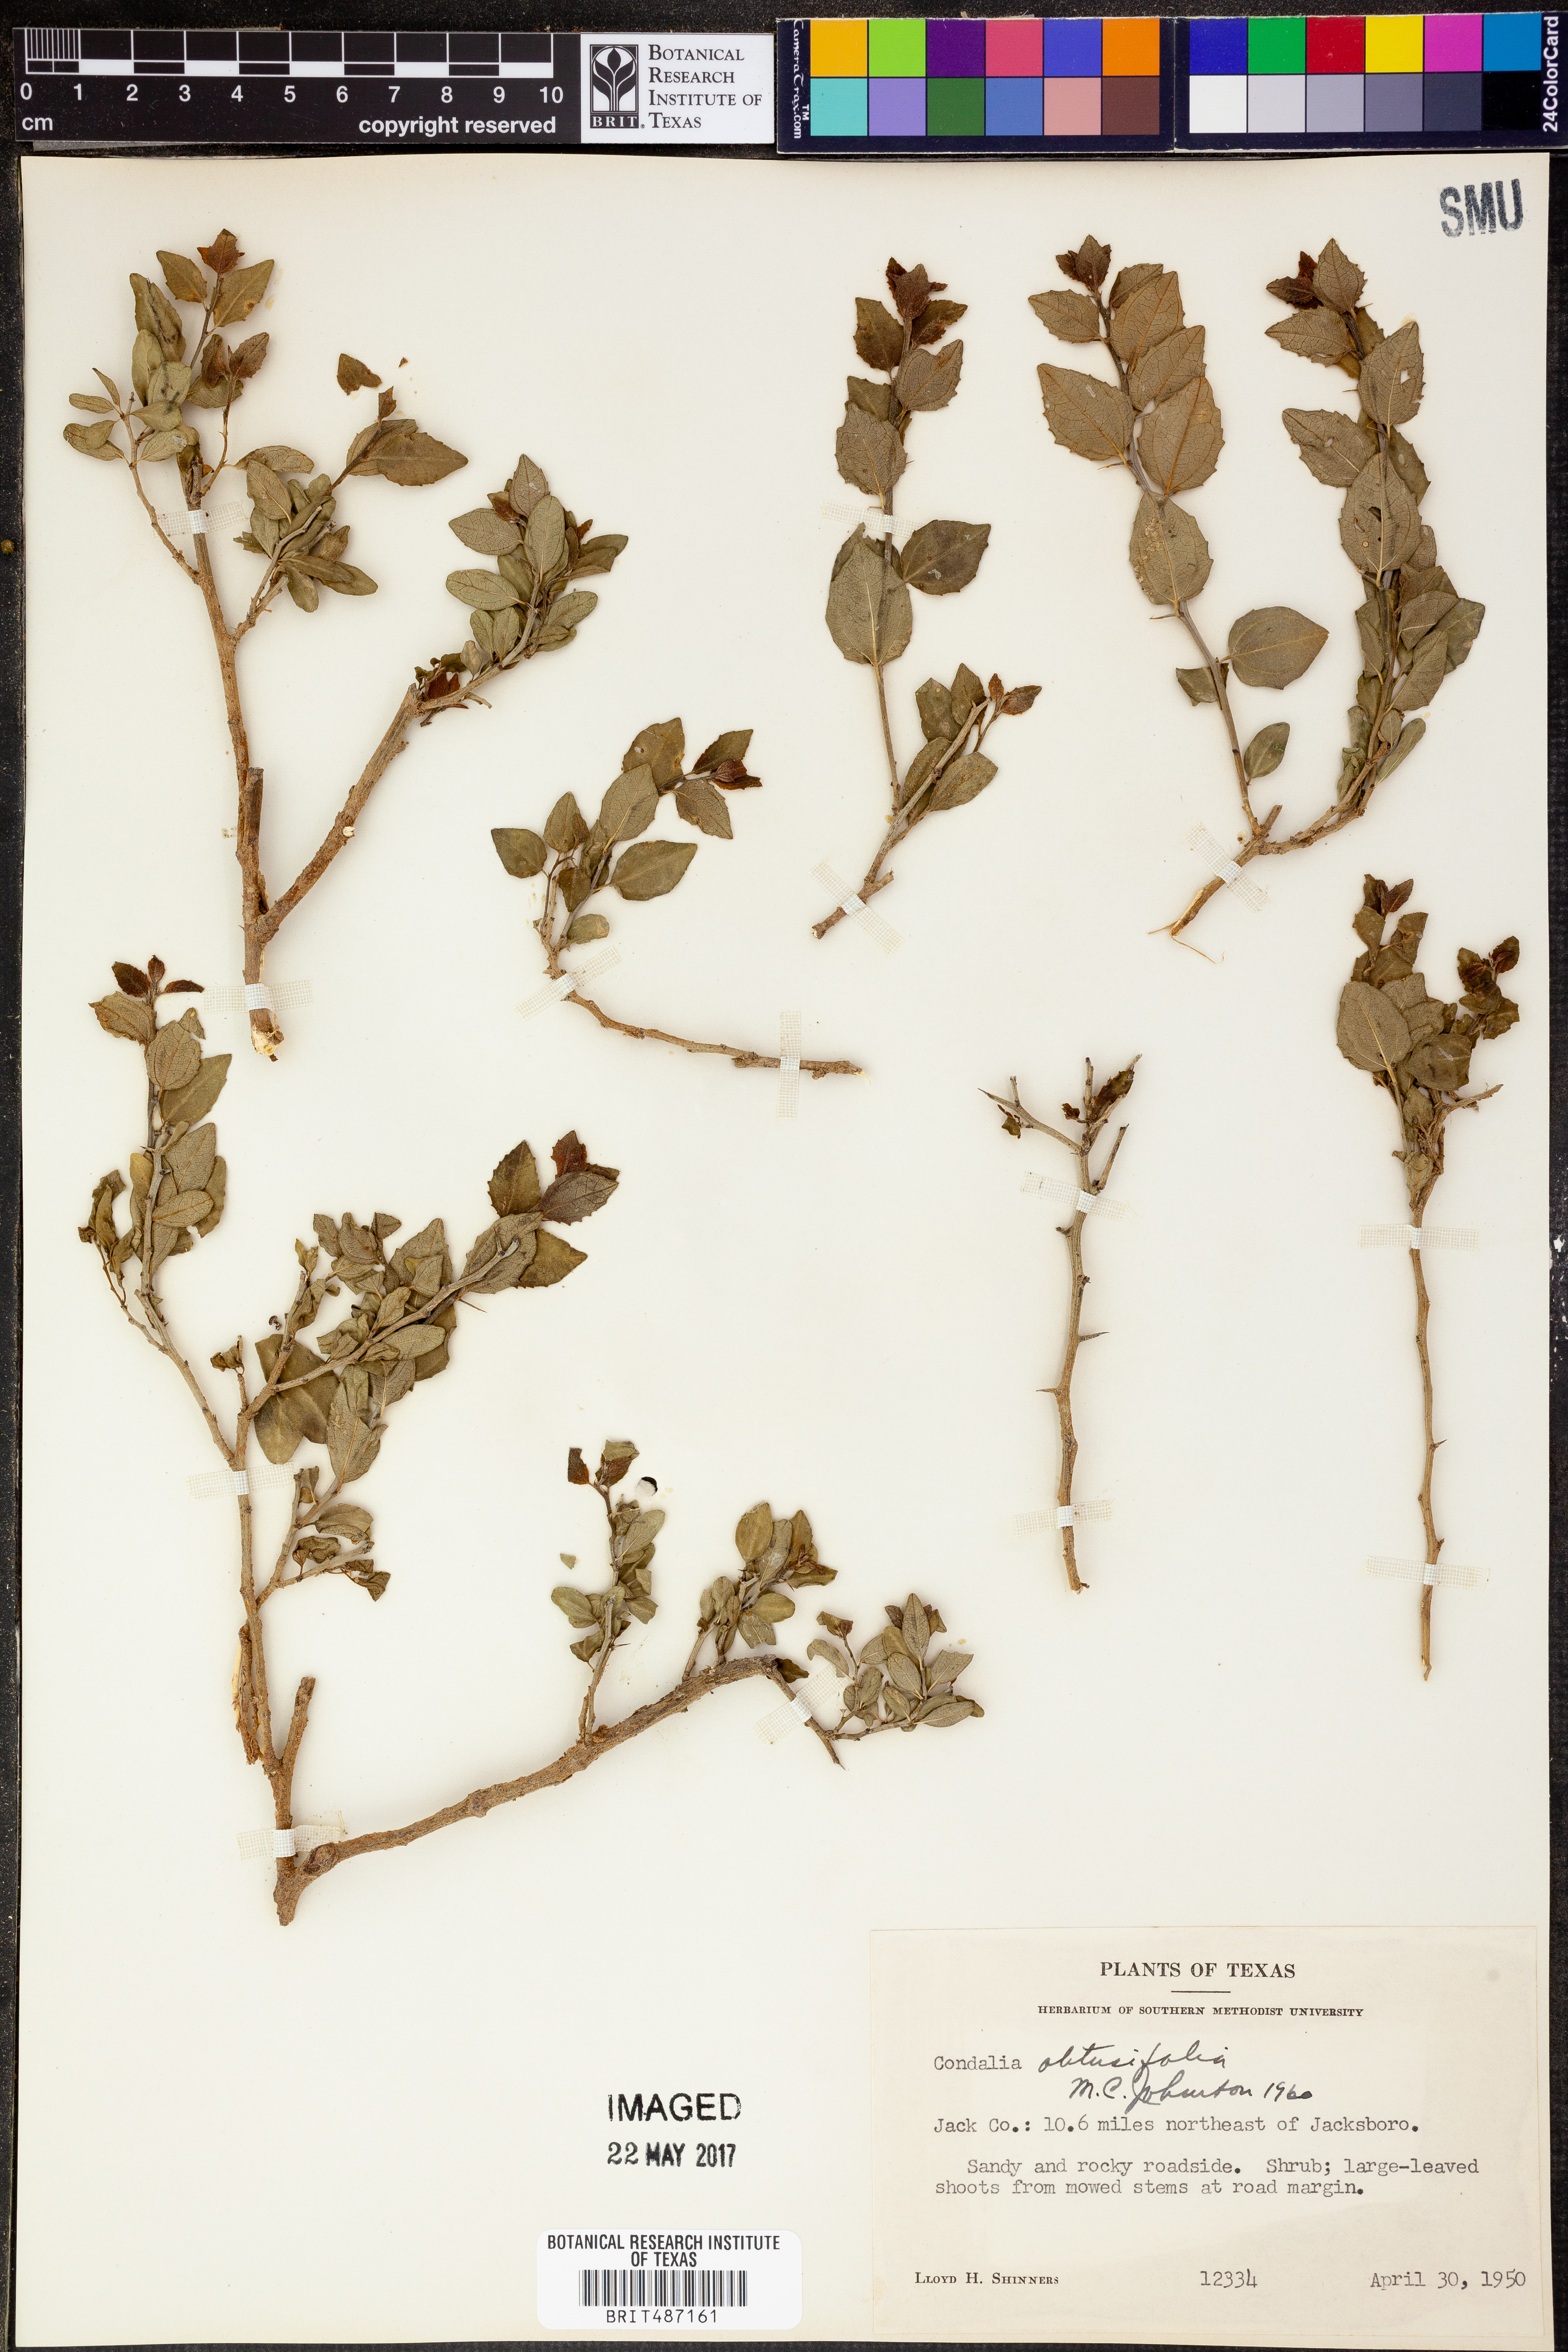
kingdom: Plantae
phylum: Tracheophyta
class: Magnoliopsida
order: Rosales
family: Rhamnaceae
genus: Sarcomphalus
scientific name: Sarcomphalus obtusifolius
